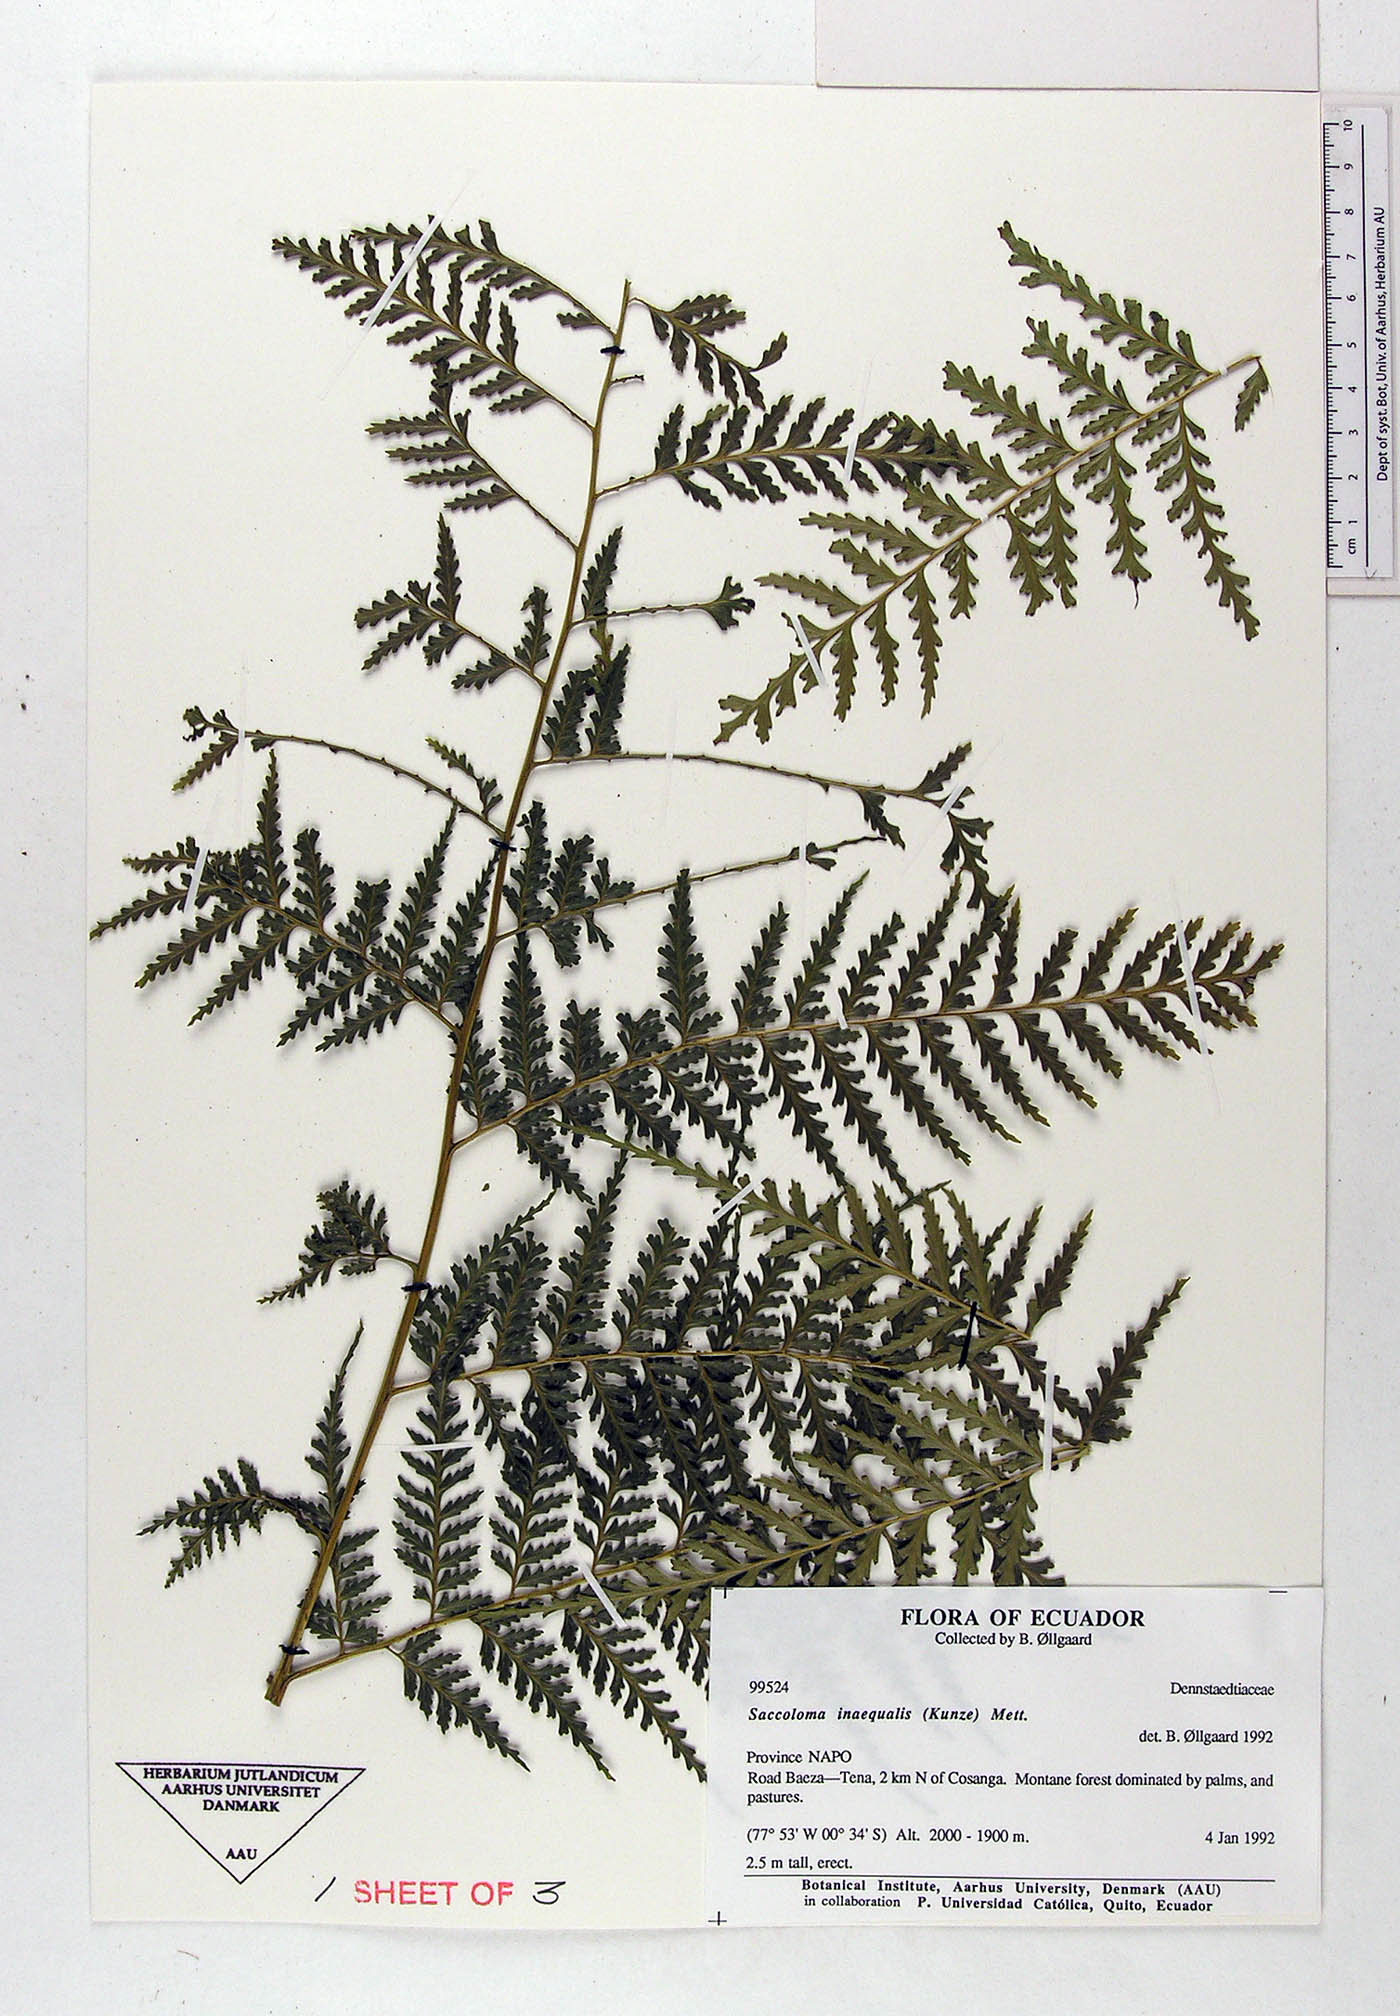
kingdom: Plantae
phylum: Tracheophyta
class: Polypodiopsida
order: Polypodiales
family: Saccolomataceae
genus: Saccoloma
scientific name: Saccoloma inaequale
